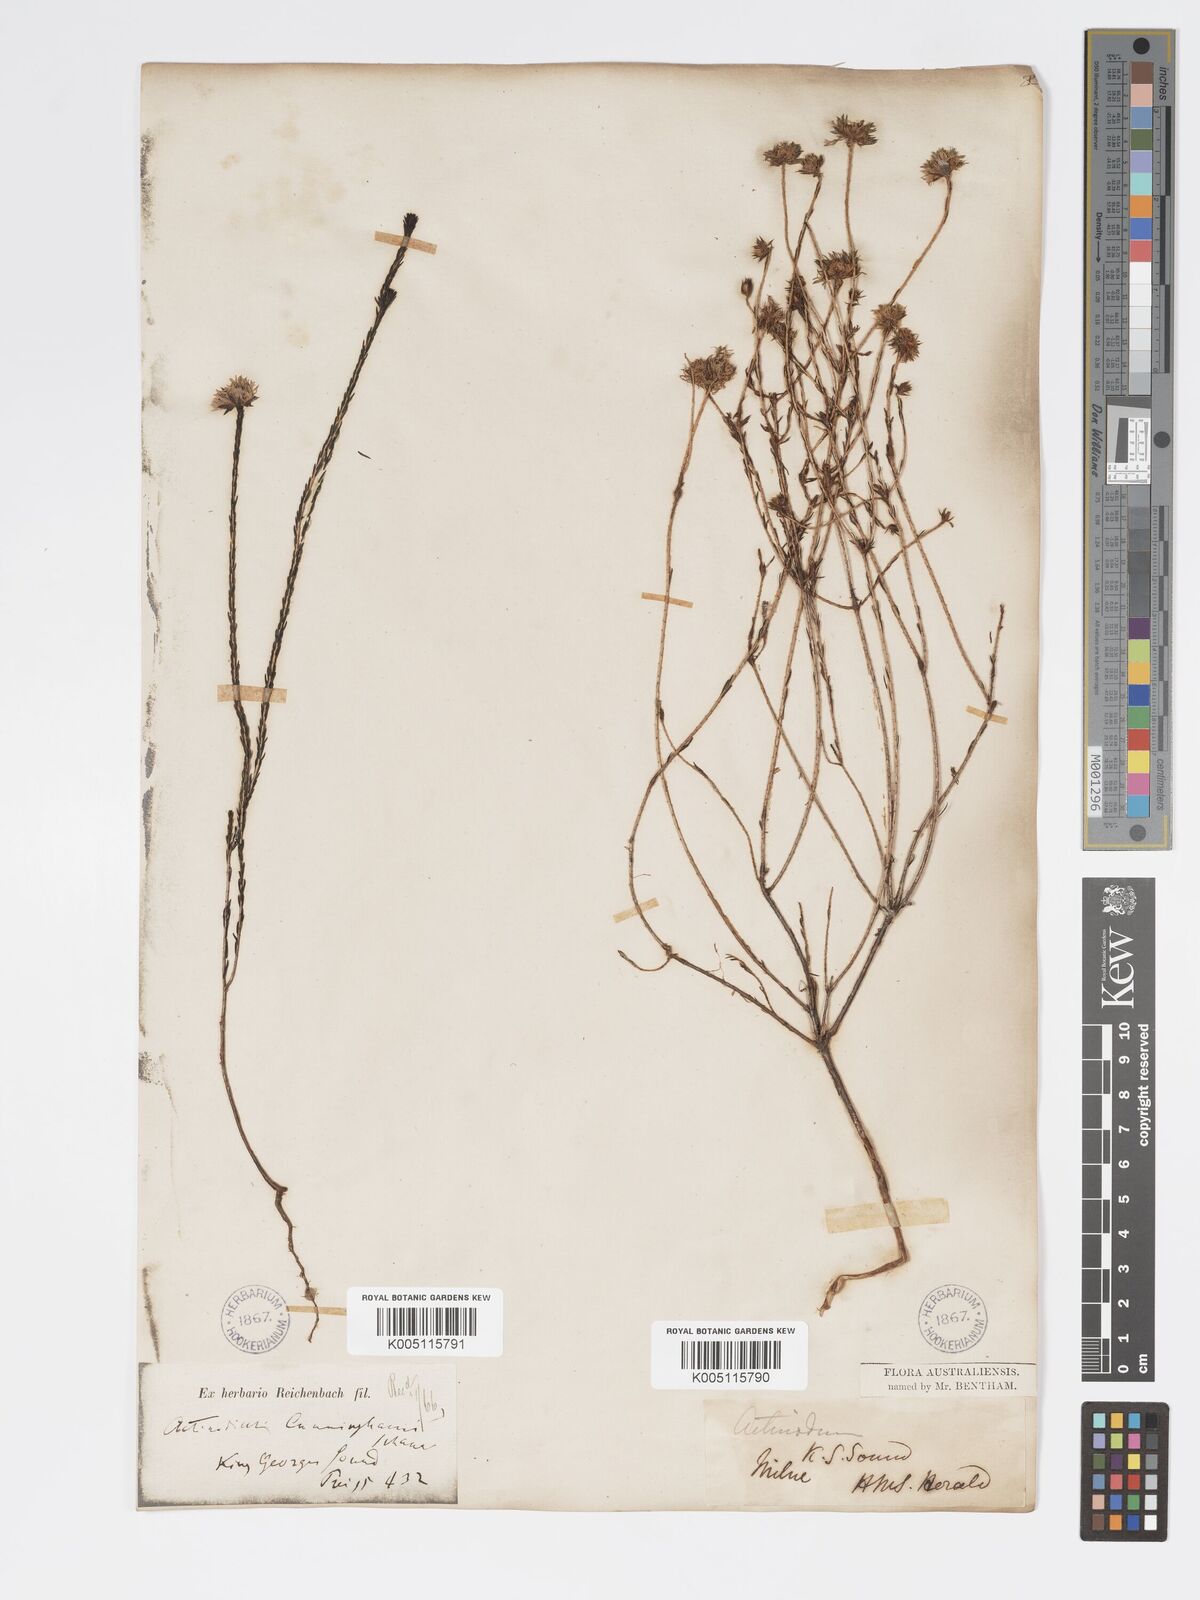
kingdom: Plantae
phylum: Tracheophyta
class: Magnoliopsida
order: Myrtales
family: Myrtaceae
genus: Actinodium
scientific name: Actinodium cunninghamii
